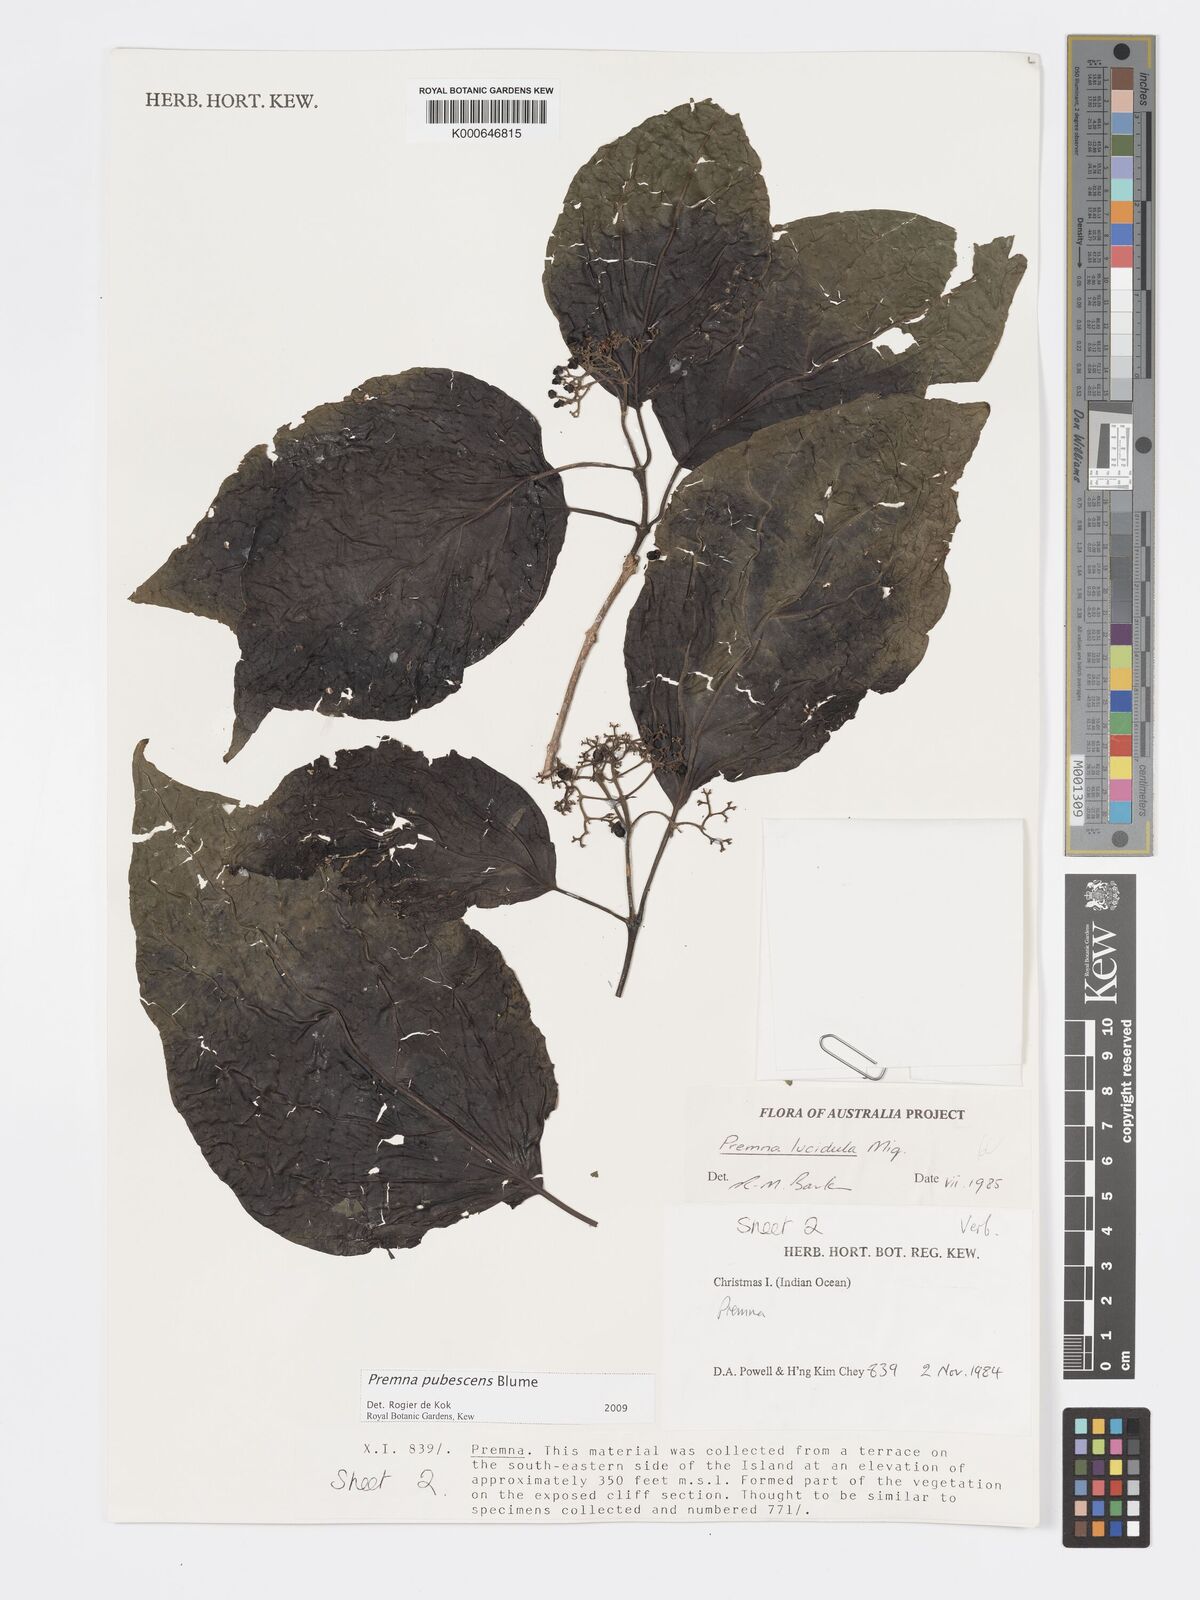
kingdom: Plantae
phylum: Tracheophyta
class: Magnoliopsida
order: Lamiales
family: Lamiaceae
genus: Premna
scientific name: Premna
